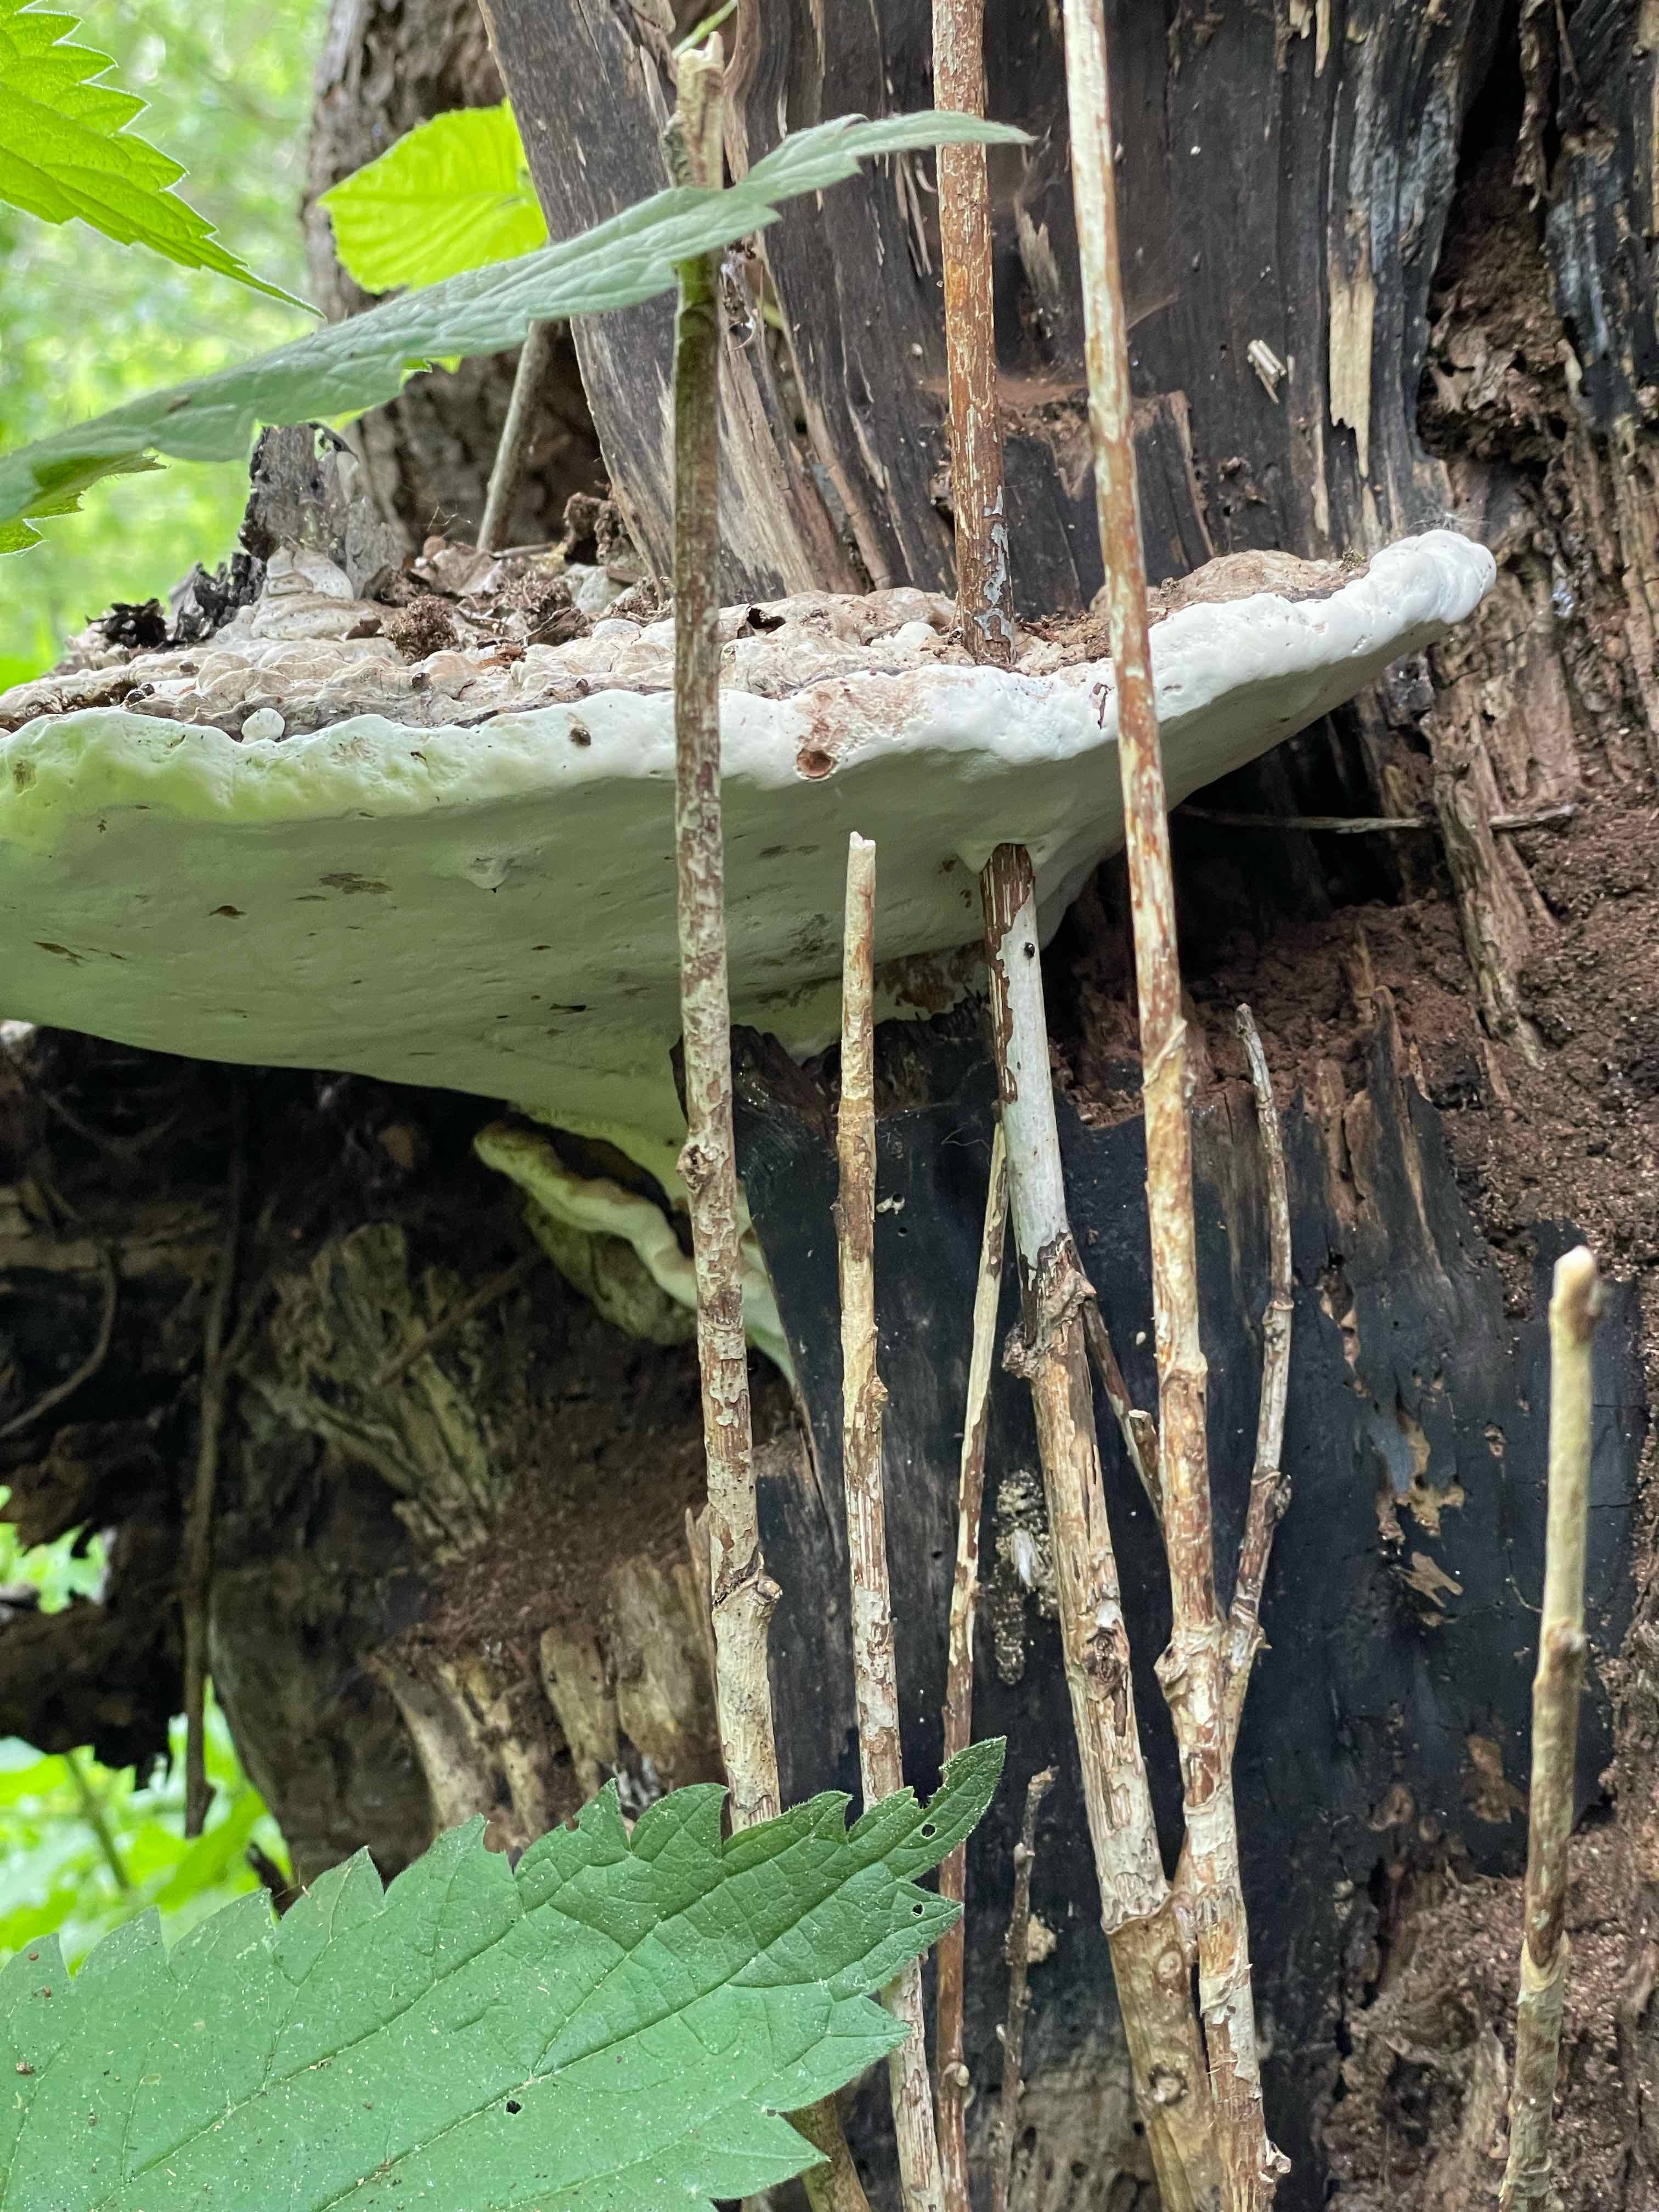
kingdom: Fungi
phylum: Basidiomycota
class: Agaricomycetes
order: Polyporales
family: Polyporaceae
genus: Ganoderma
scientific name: Ganoderma applanatum
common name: flad lakporesvamp
